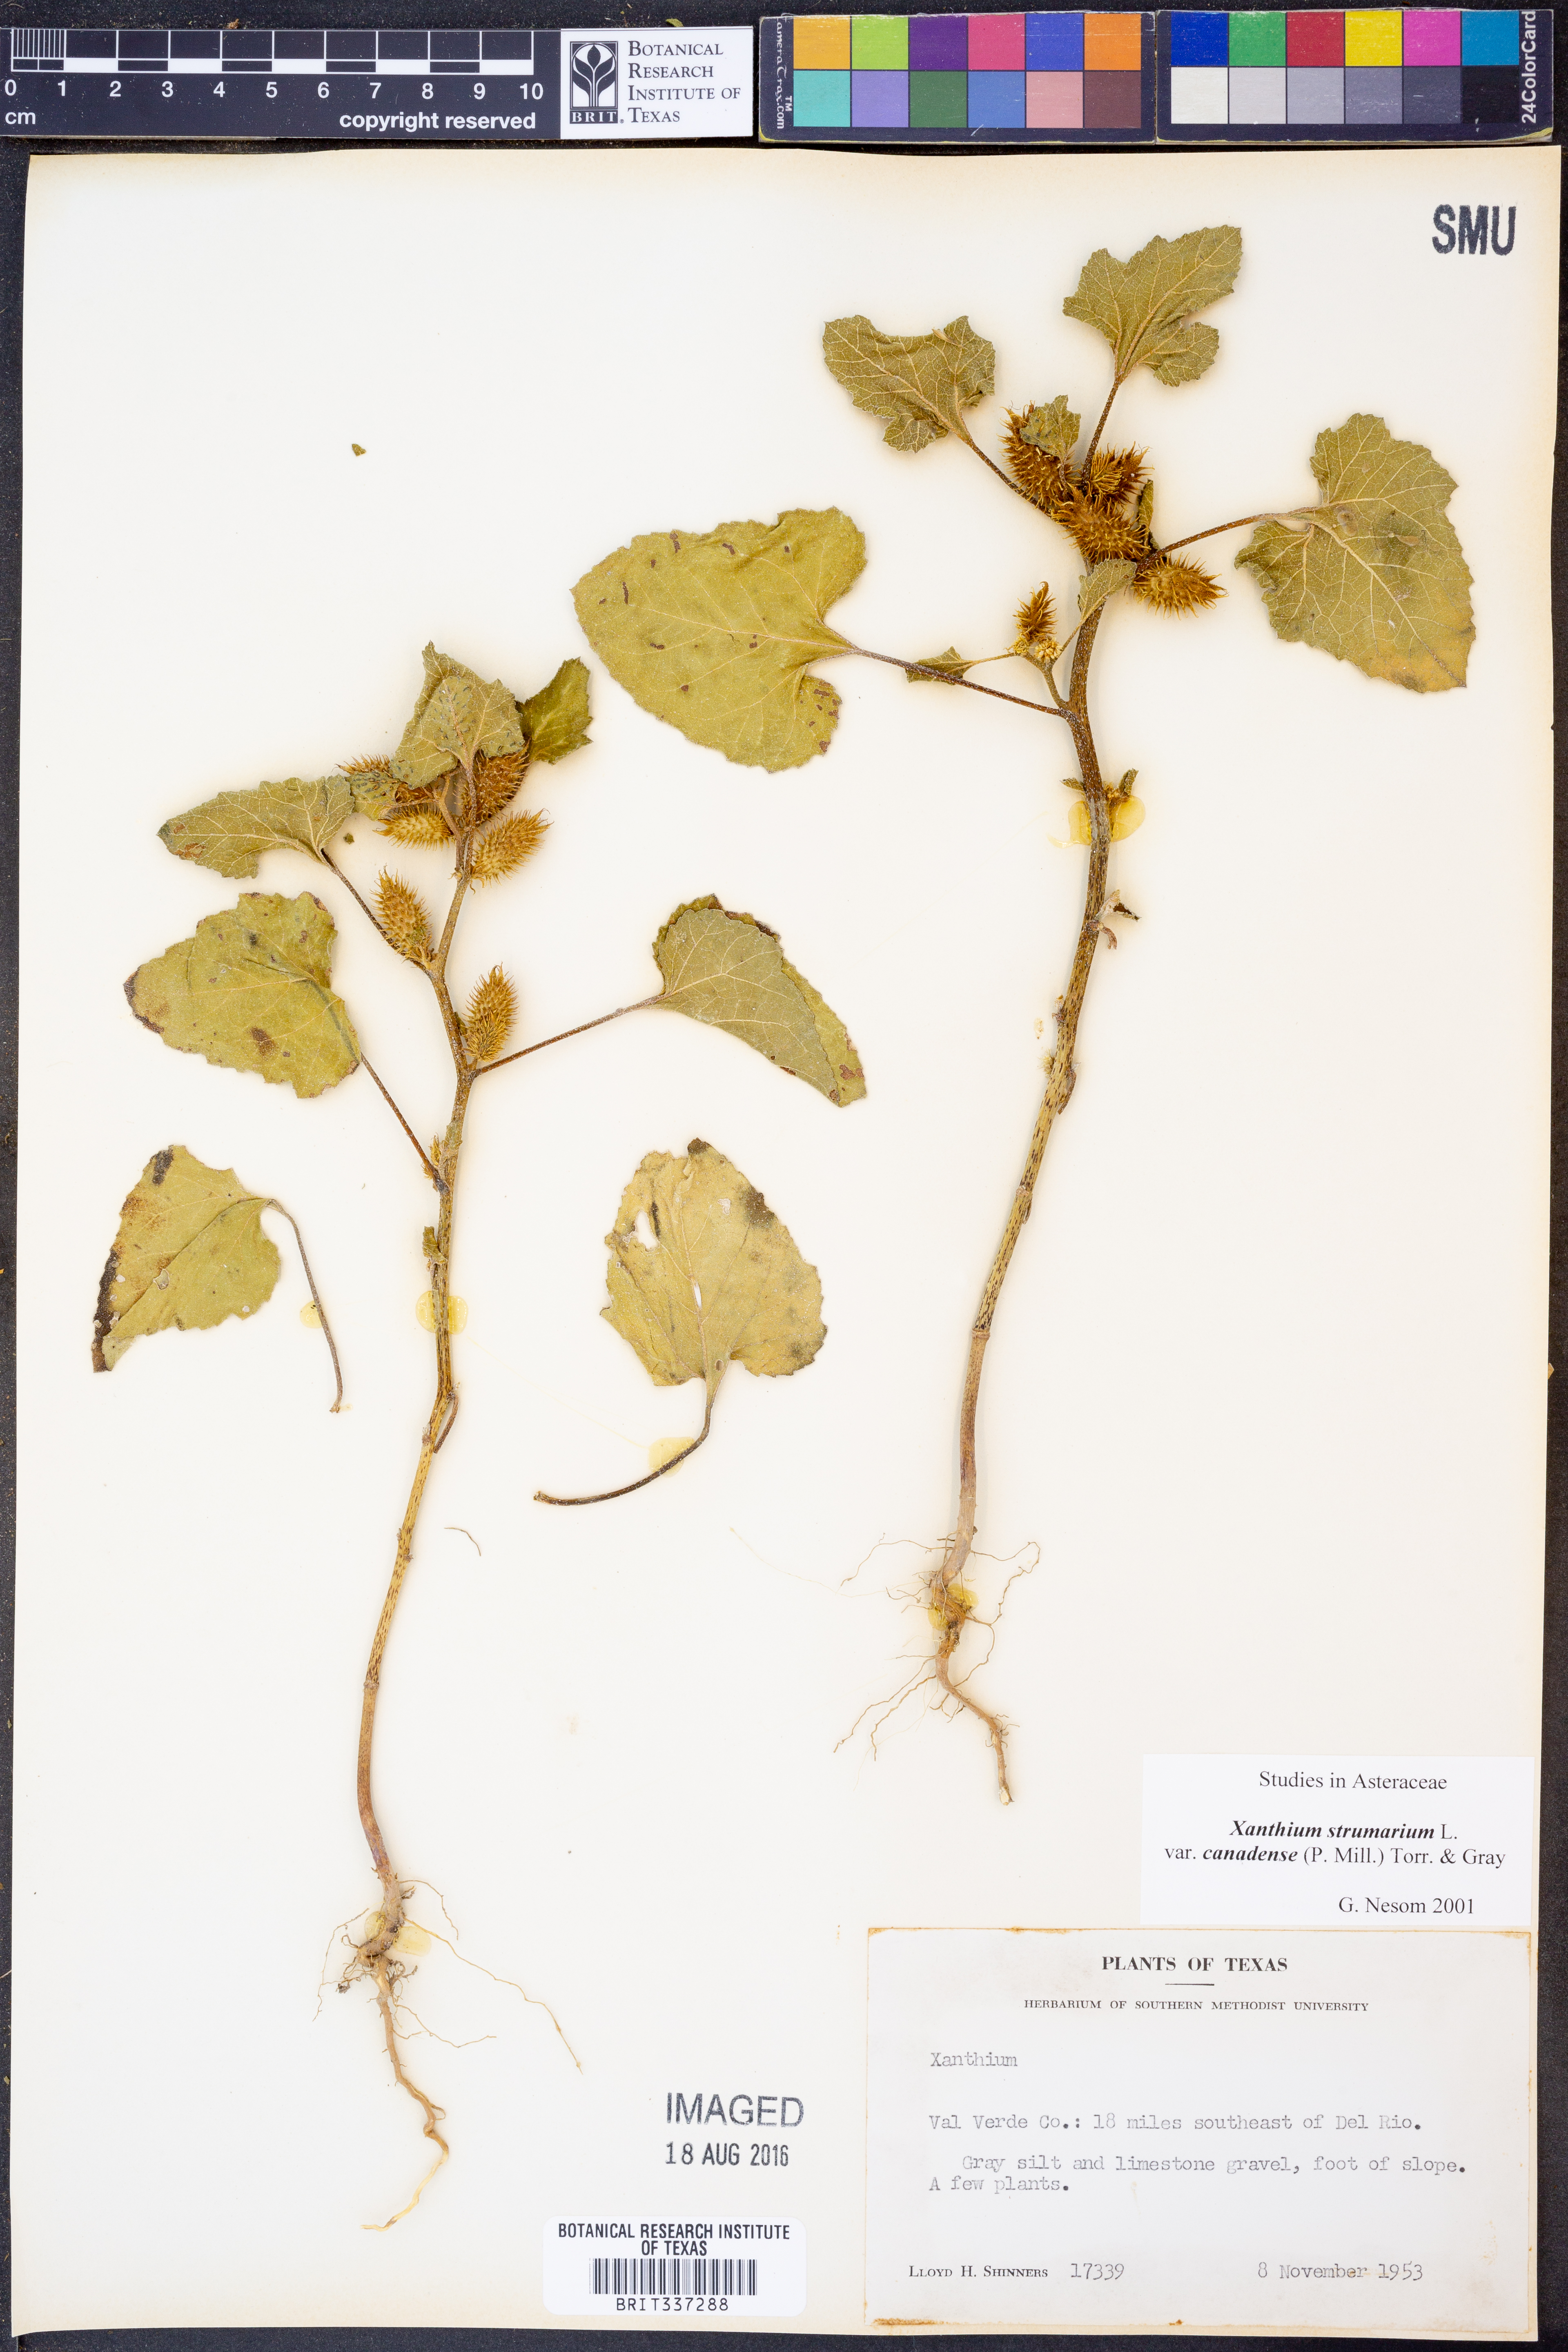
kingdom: Plantae
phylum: Tracheophyta
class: Magnoliopsida
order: Asterales
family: Asteraceae
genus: Xanthium
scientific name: Xanthium orientale
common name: Californian burr
